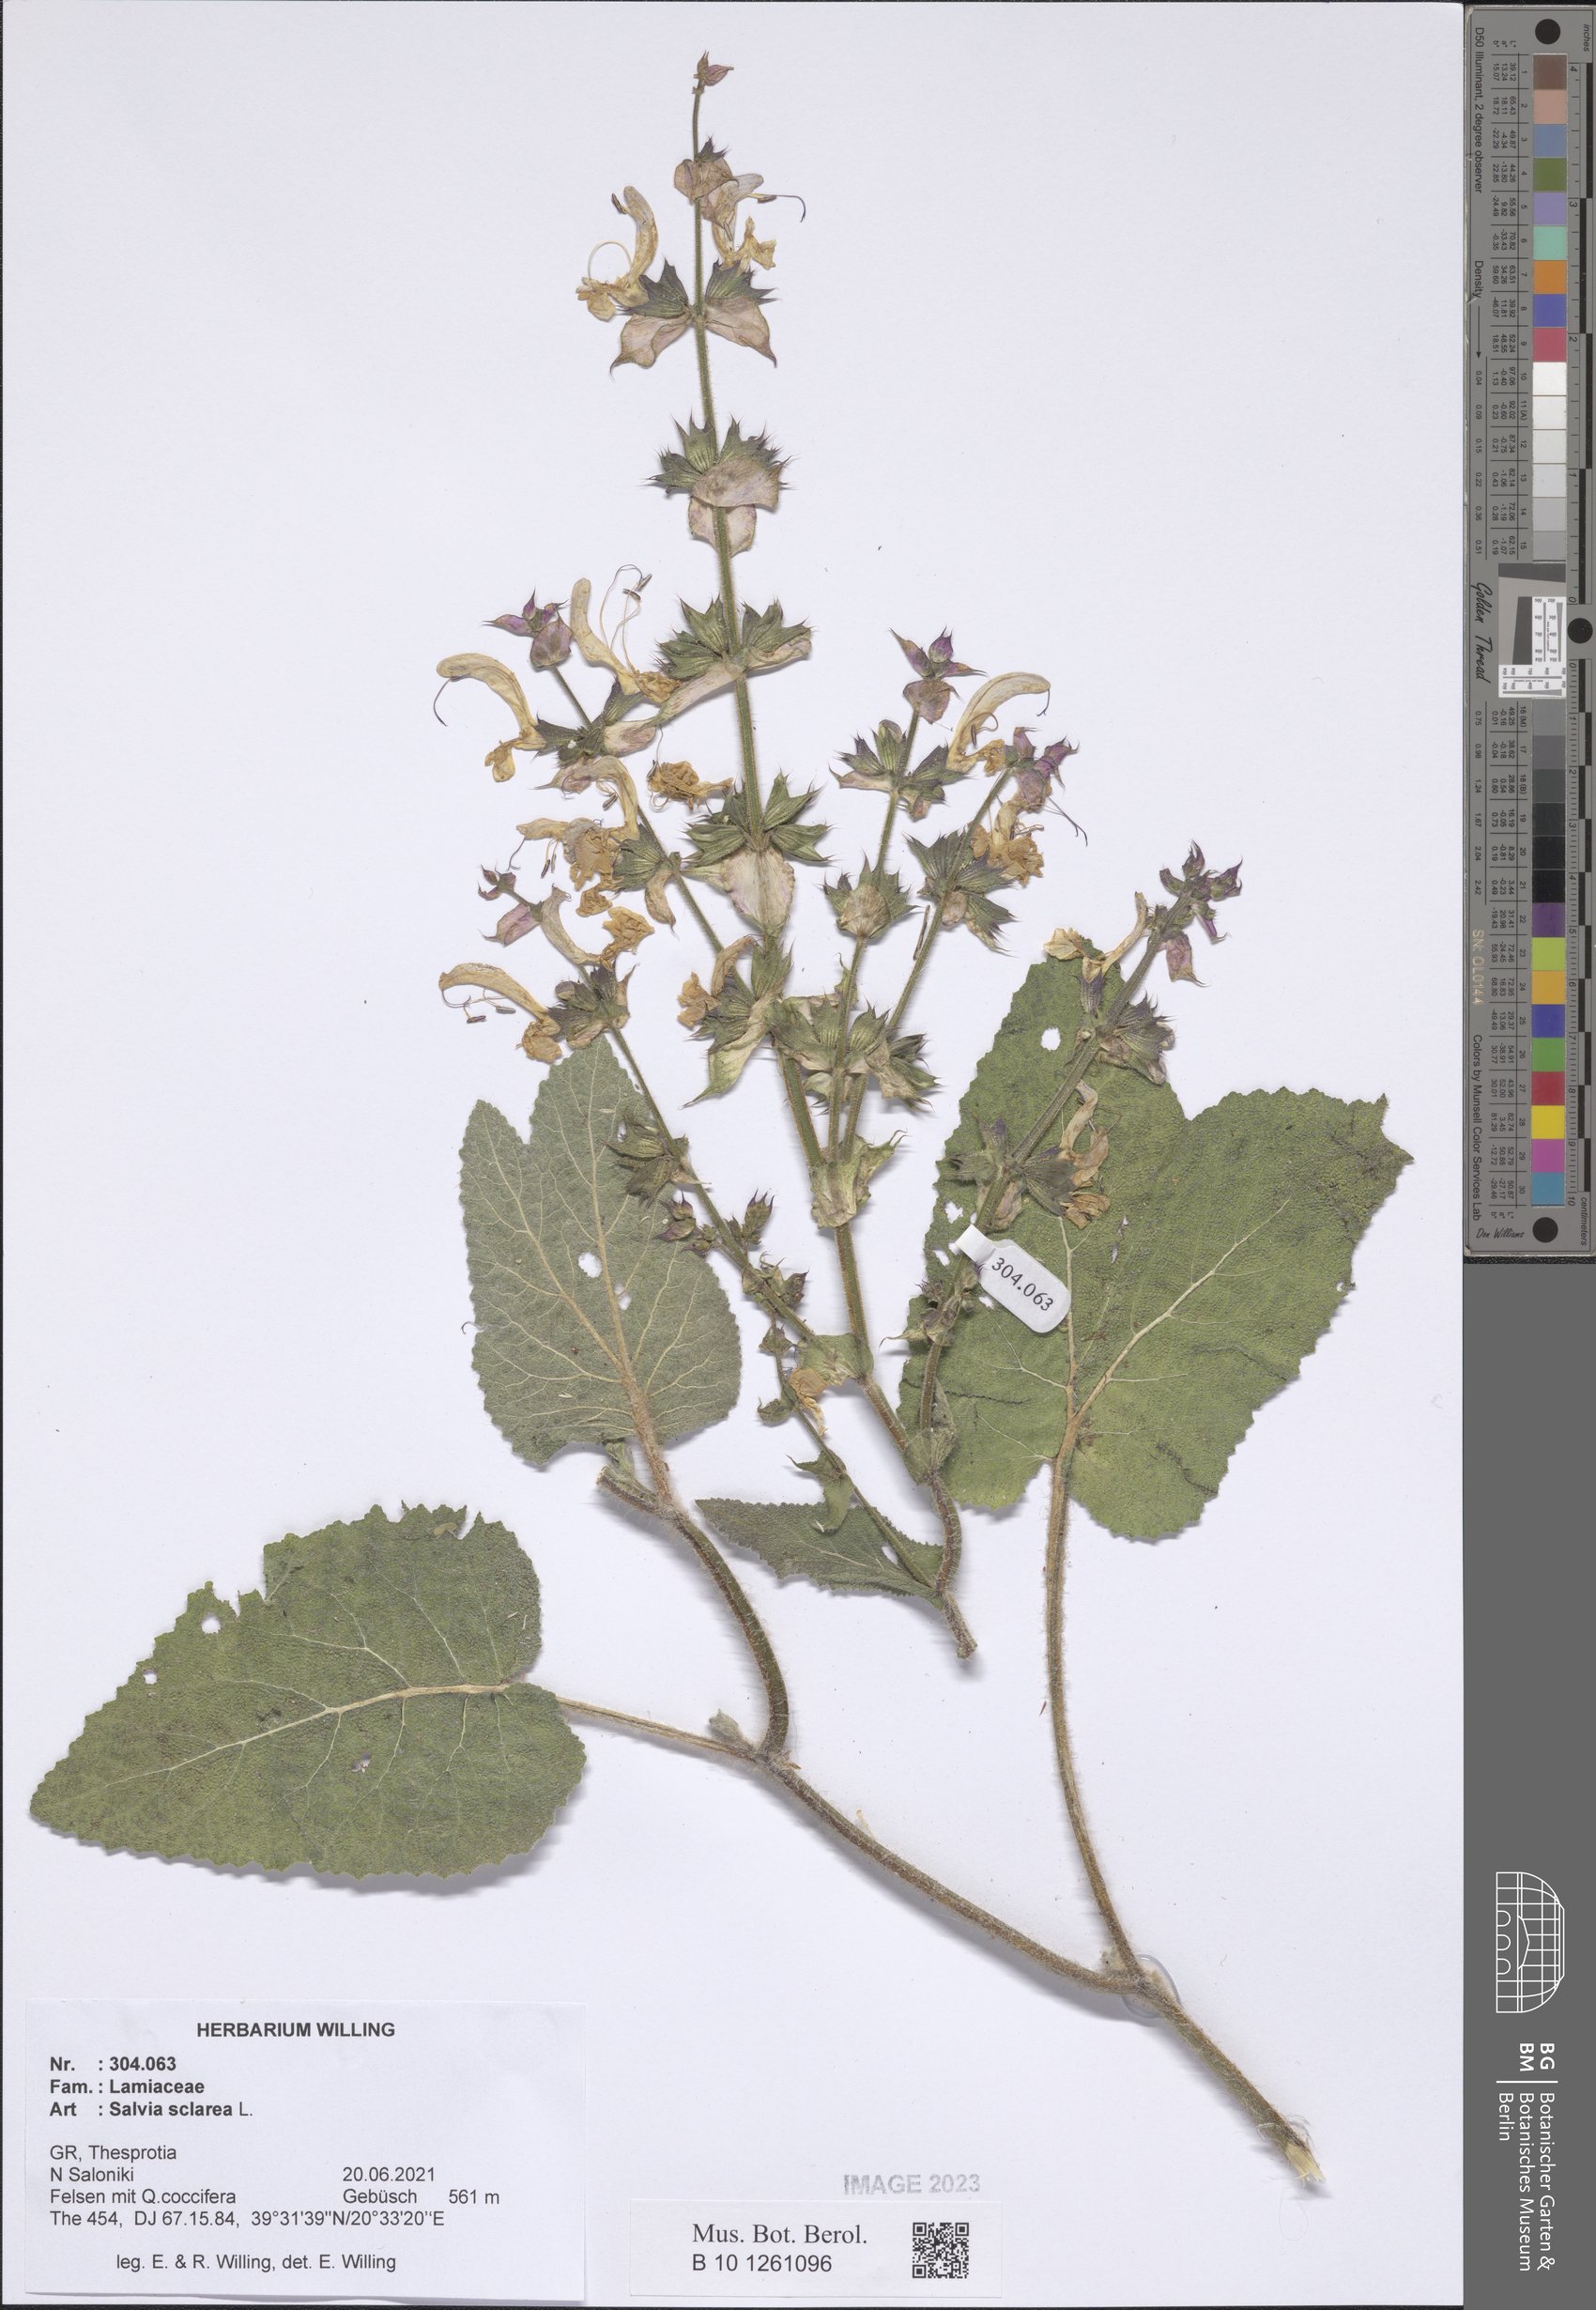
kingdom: Plantae
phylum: Tracheophyta
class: Magnoliopsida
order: Lamiales
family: Lamiaceae
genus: Salvia
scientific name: Salvia sclarea
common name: Clary
